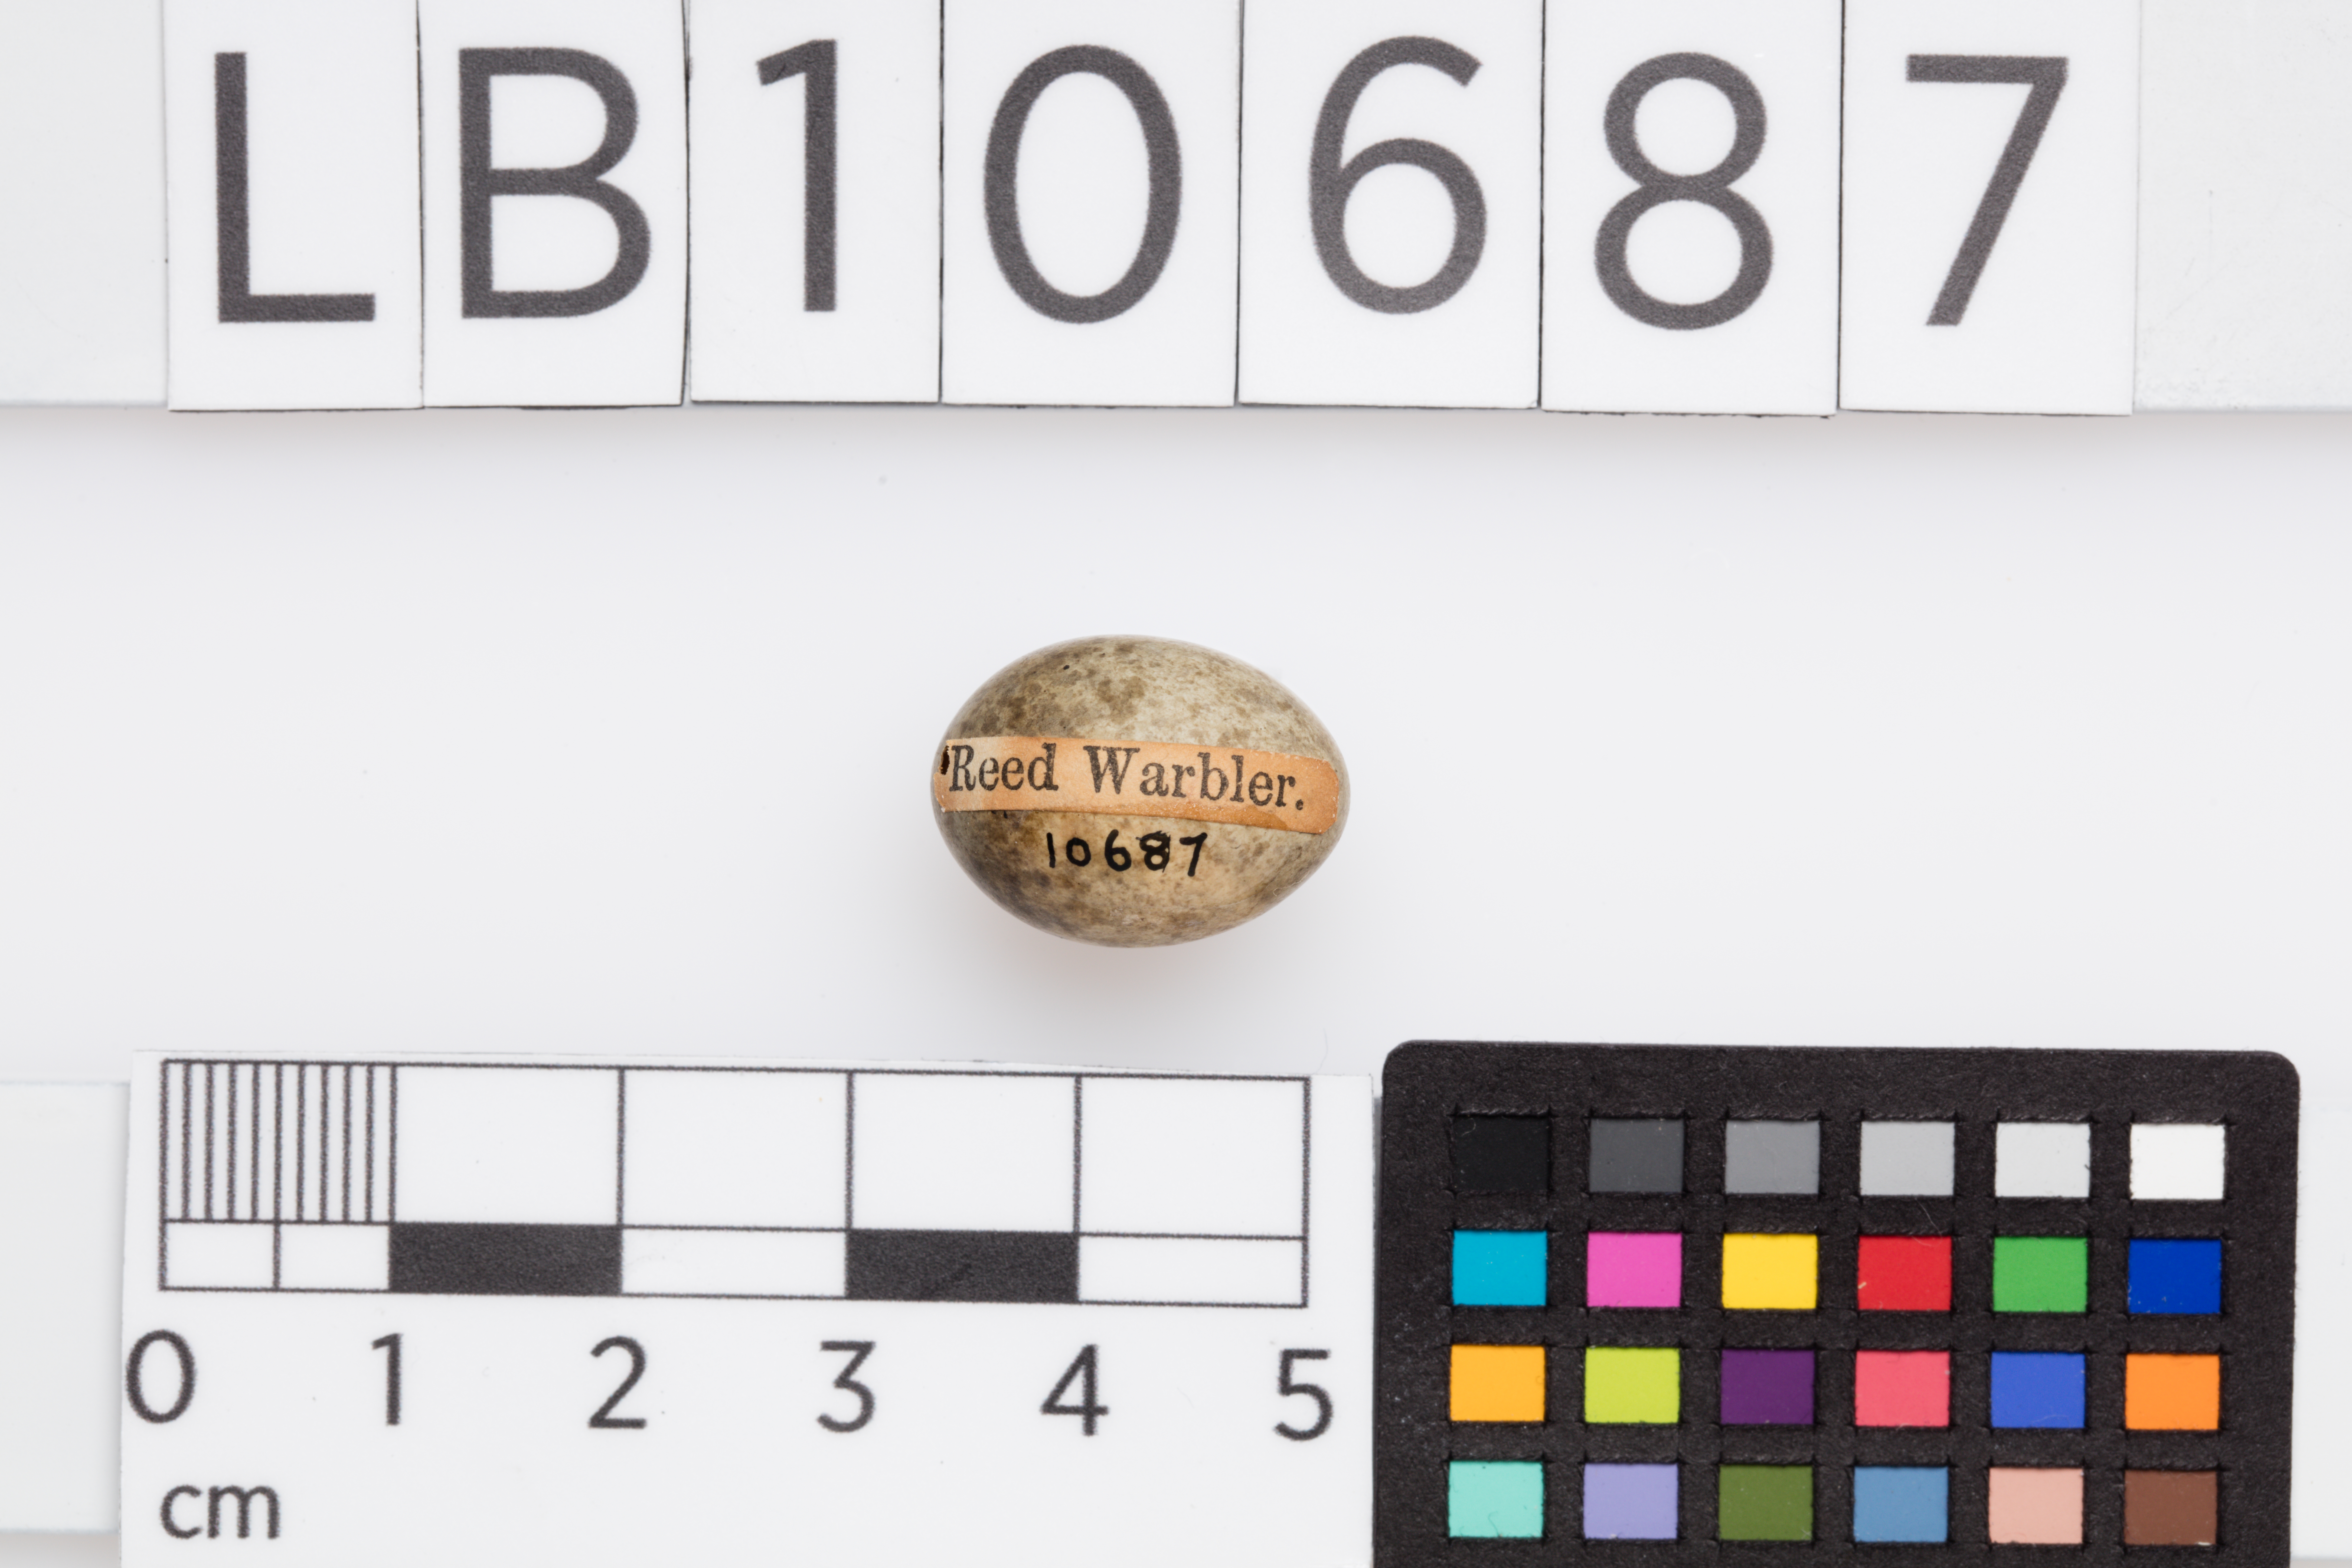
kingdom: Animalia
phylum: Chordata
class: Aves
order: Passeriformes
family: Acrocephalidae
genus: Acrocephalus
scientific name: Acrocephalus scirpaceus
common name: Eurasian reed warbler
